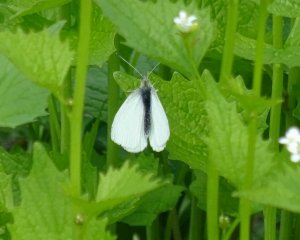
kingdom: Animalia
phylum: Arthropoda
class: Insecta
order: Lepidoptera
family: Pieridae
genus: Pieris
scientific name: Pieris rapae
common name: Cabbage White
